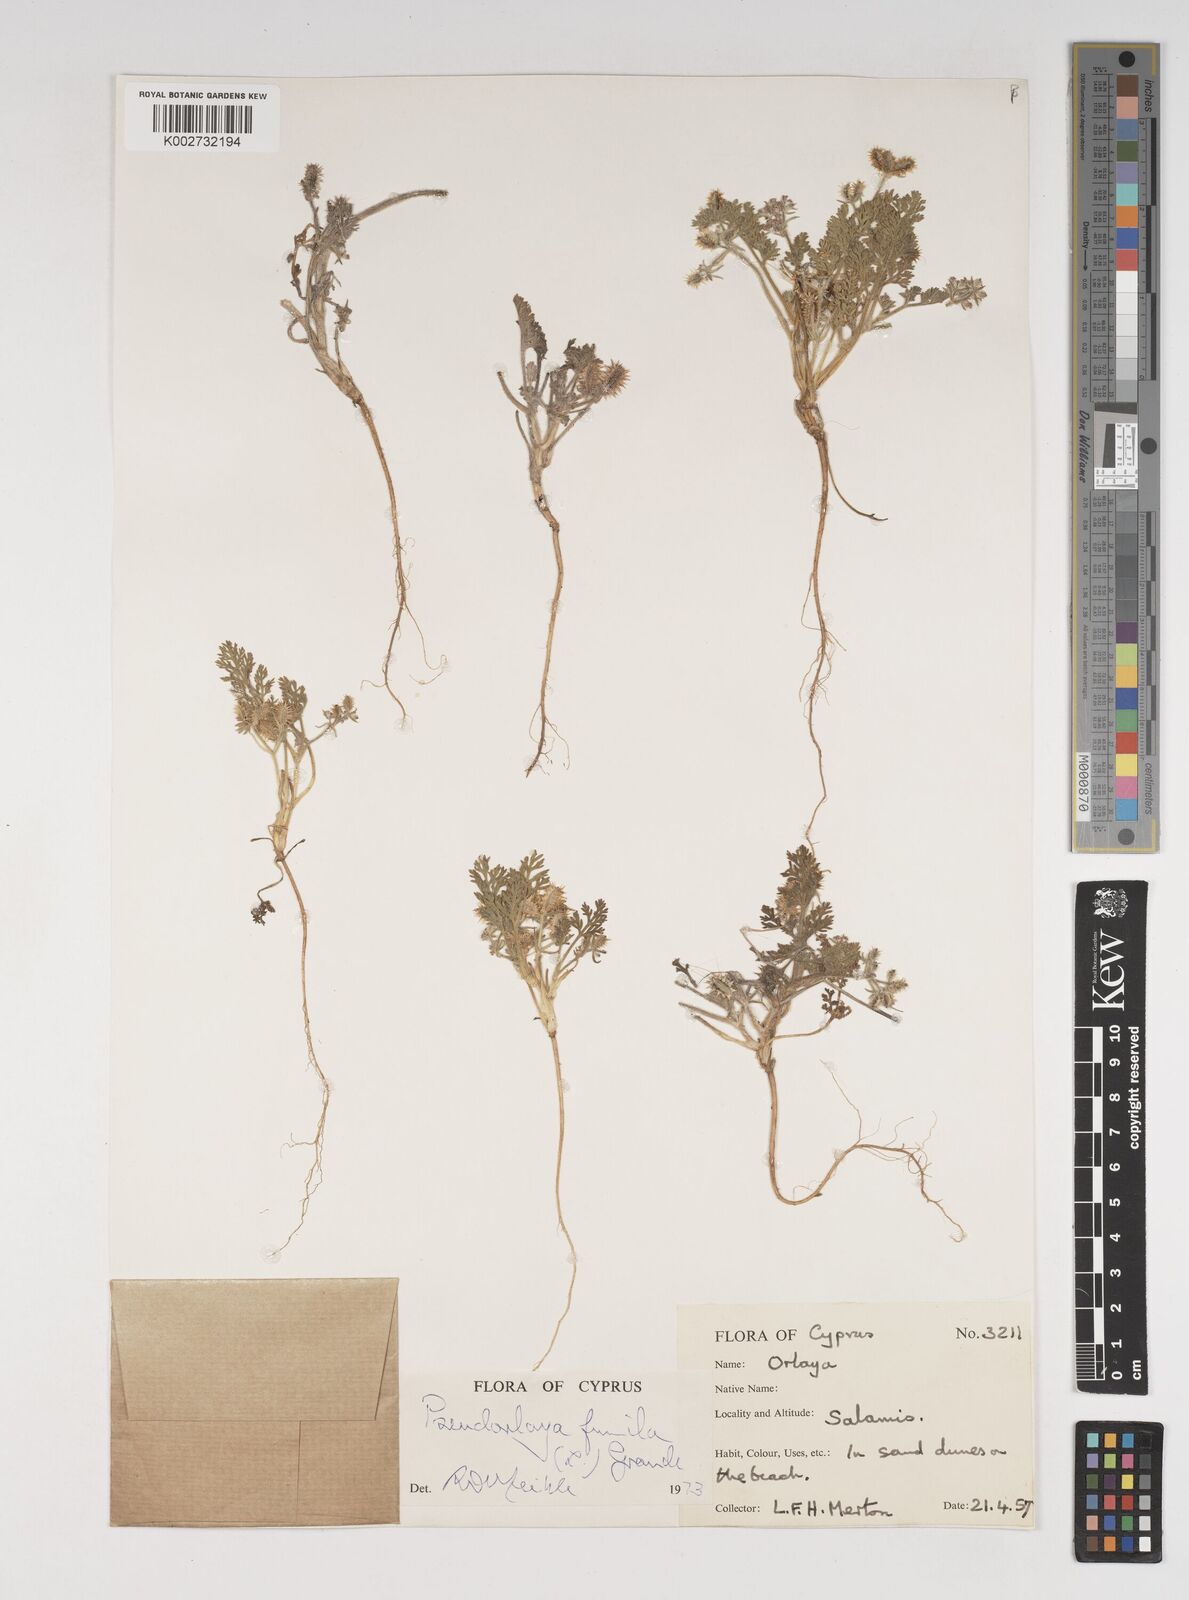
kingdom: Plantae
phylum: Tracheophyta
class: Magnoliopsida
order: Apiales
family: Apiaceae
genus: Daucus
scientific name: Daucus pumilus
